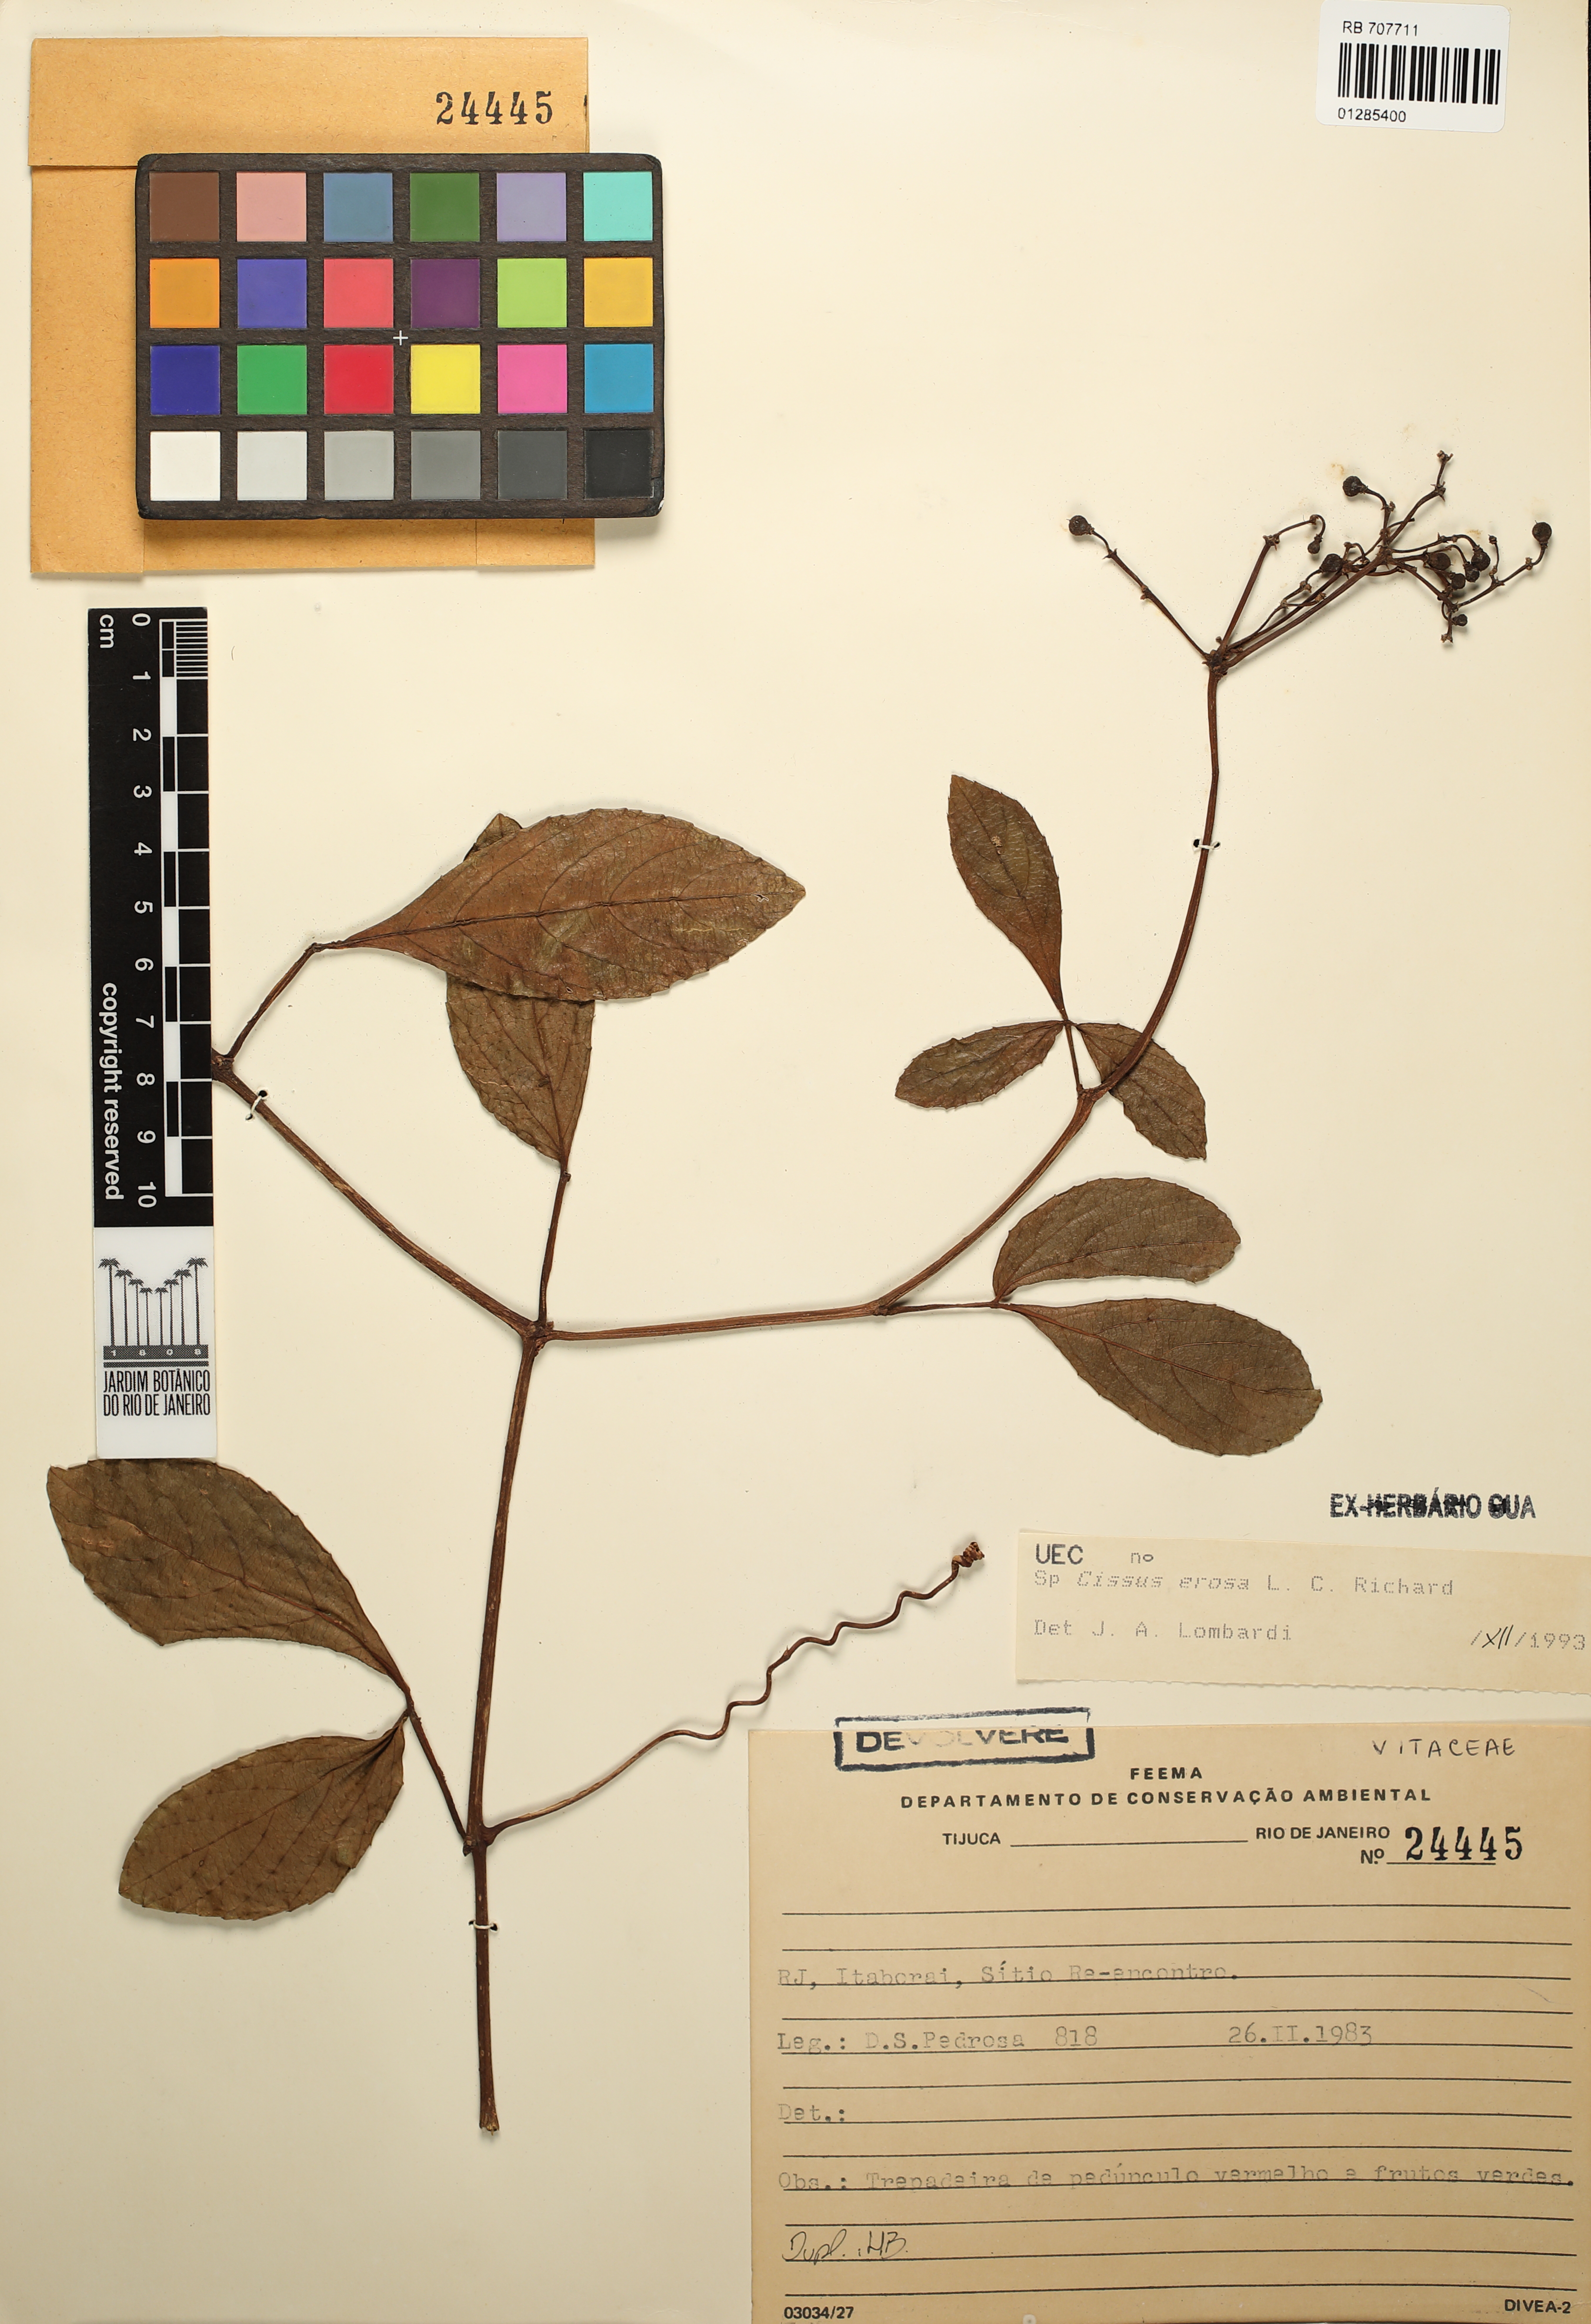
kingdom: Plantae
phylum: Tracheophyta
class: Magnoliopsida
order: Vitales
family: Vitaceae
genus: Cissus
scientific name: Cissus erosa
